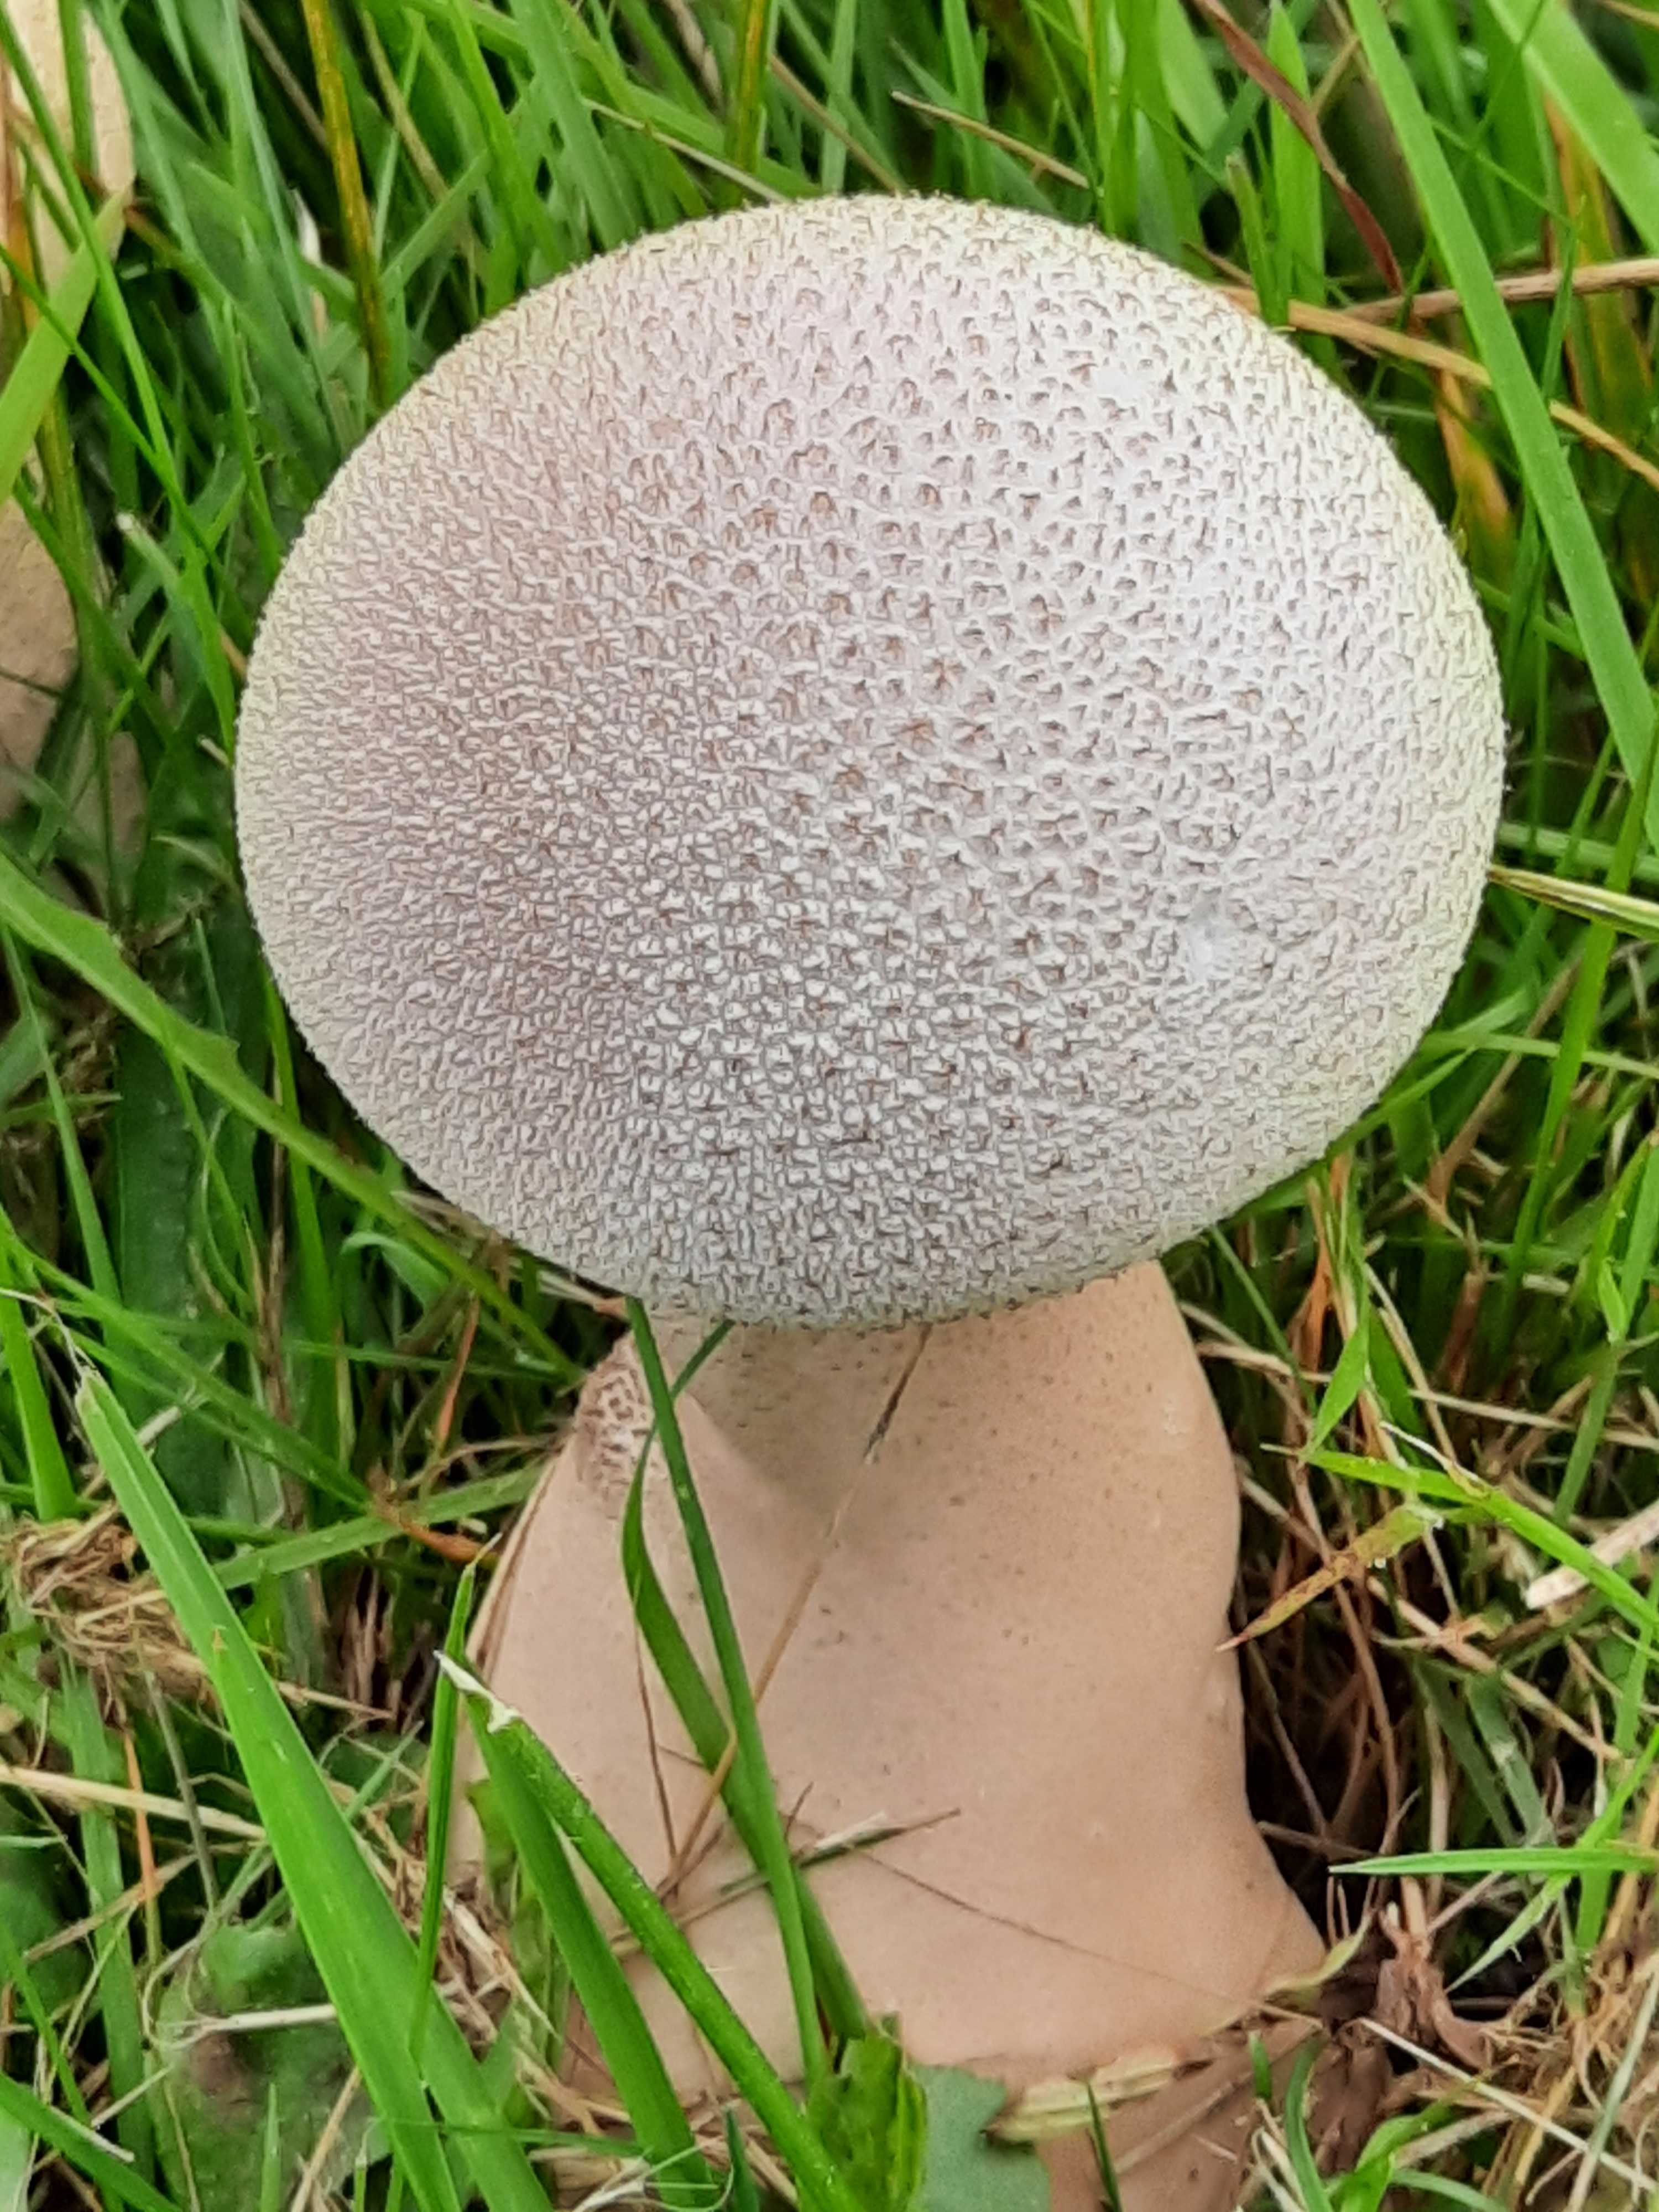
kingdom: Fungi
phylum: Basidiomycota
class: Agaricomycetes
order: Agaricales
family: Lycoperdaceae
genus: Lycoperdon
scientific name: Lycoperdon excipuliforme
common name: højstokket støvbold
